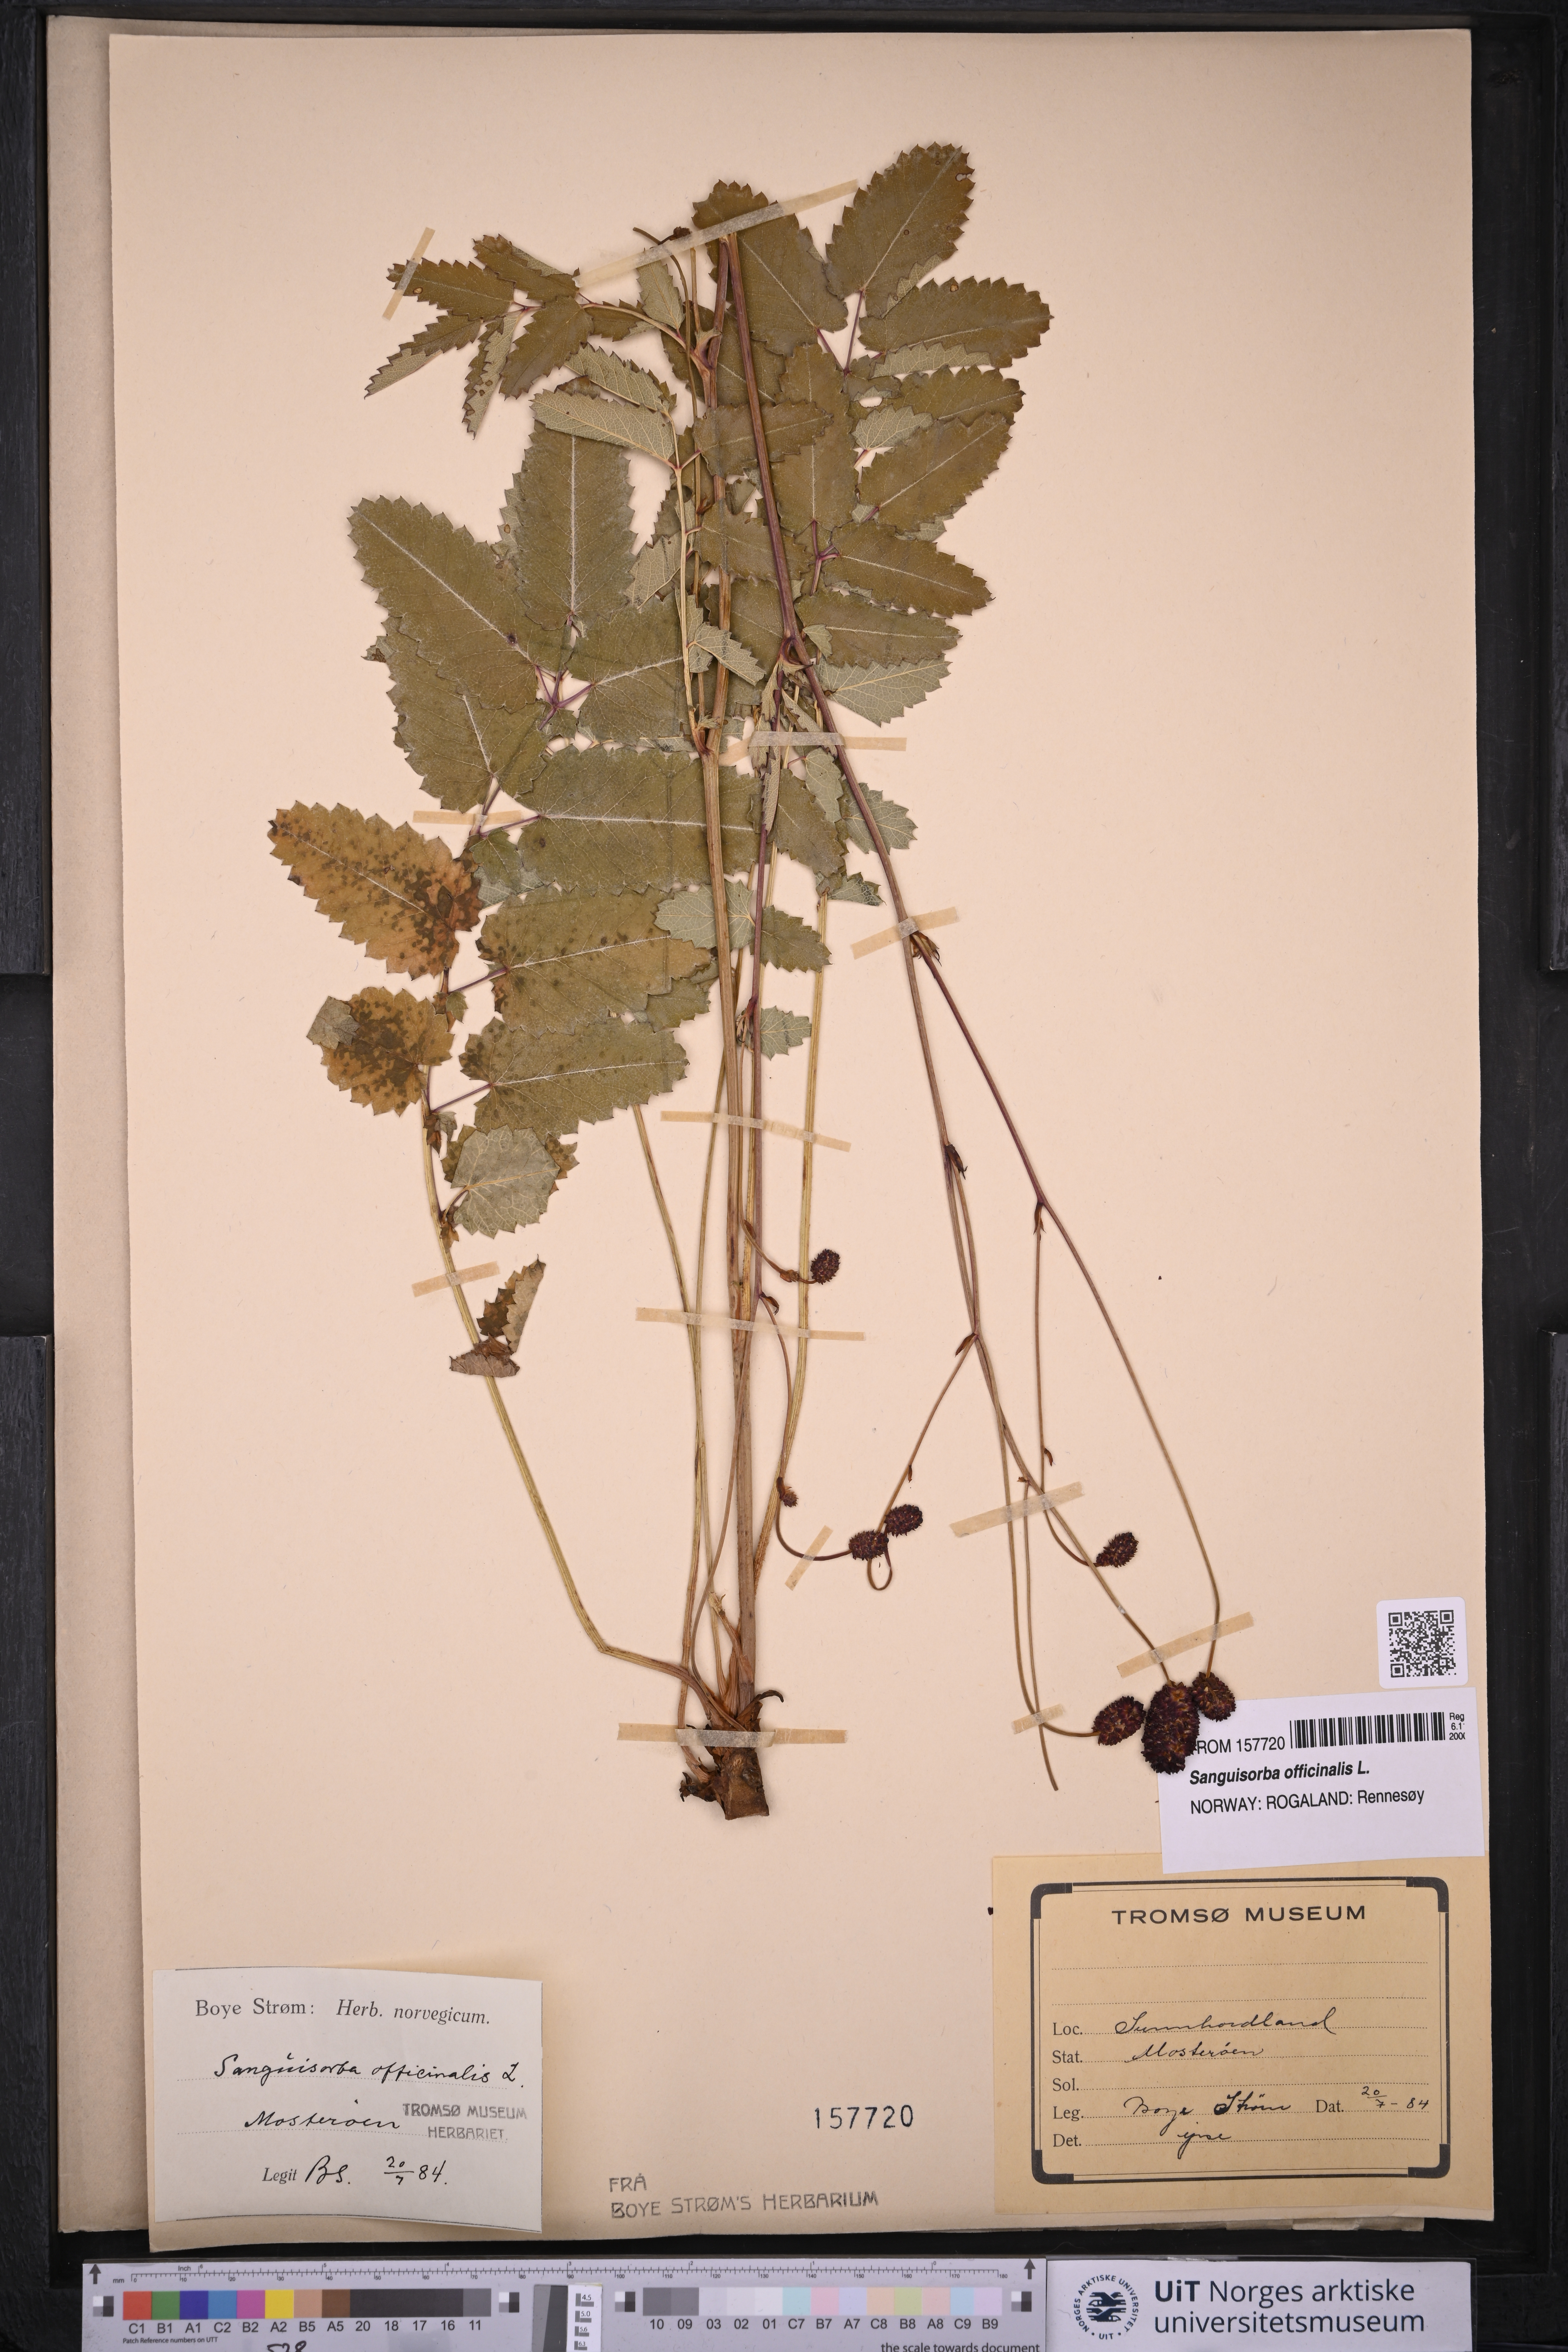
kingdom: Plantae
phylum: Tracheophyta
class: Magnoliopsida
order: Rosales
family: Rosaceae
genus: Sanguisorba
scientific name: Sanguisorba officinalis
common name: Great burnet
